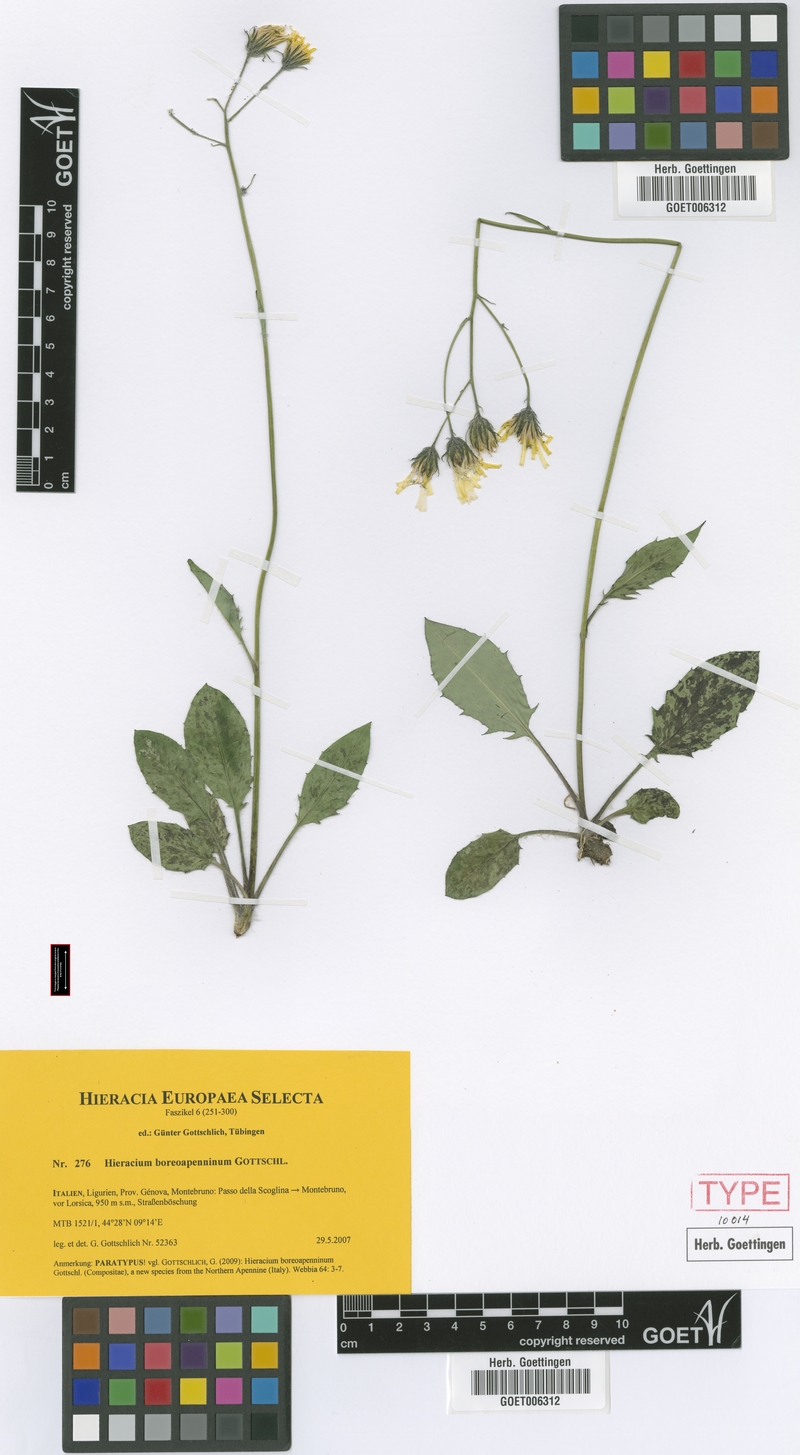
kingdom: Plantae
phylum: Tracheophyta
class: Magnoliopsida
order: Asterales
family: Asteraceae
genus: Hieracium
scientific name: Hieracium boreoapenninum
